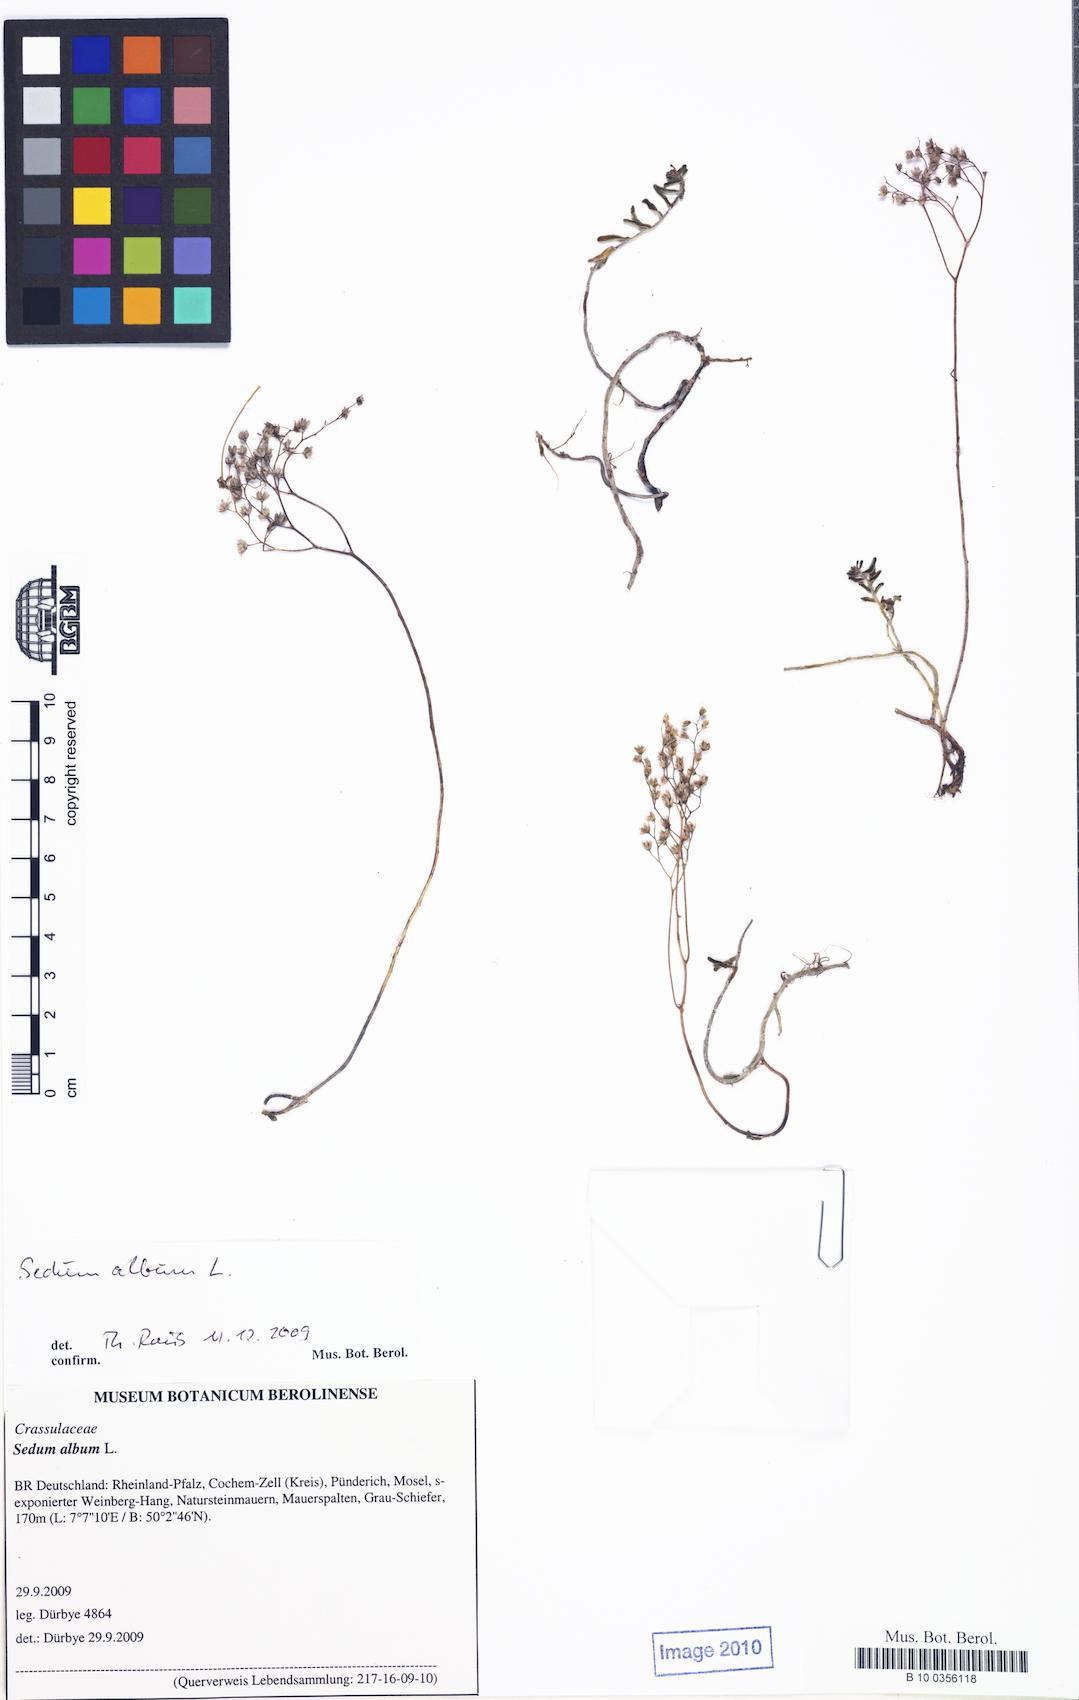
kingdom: Plantae
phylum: Tracheophyta
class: Magnoliopsida
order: Saxifragales
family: Crassulaceae
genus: Sedum
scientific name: Sedum album
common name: White stonecrop
